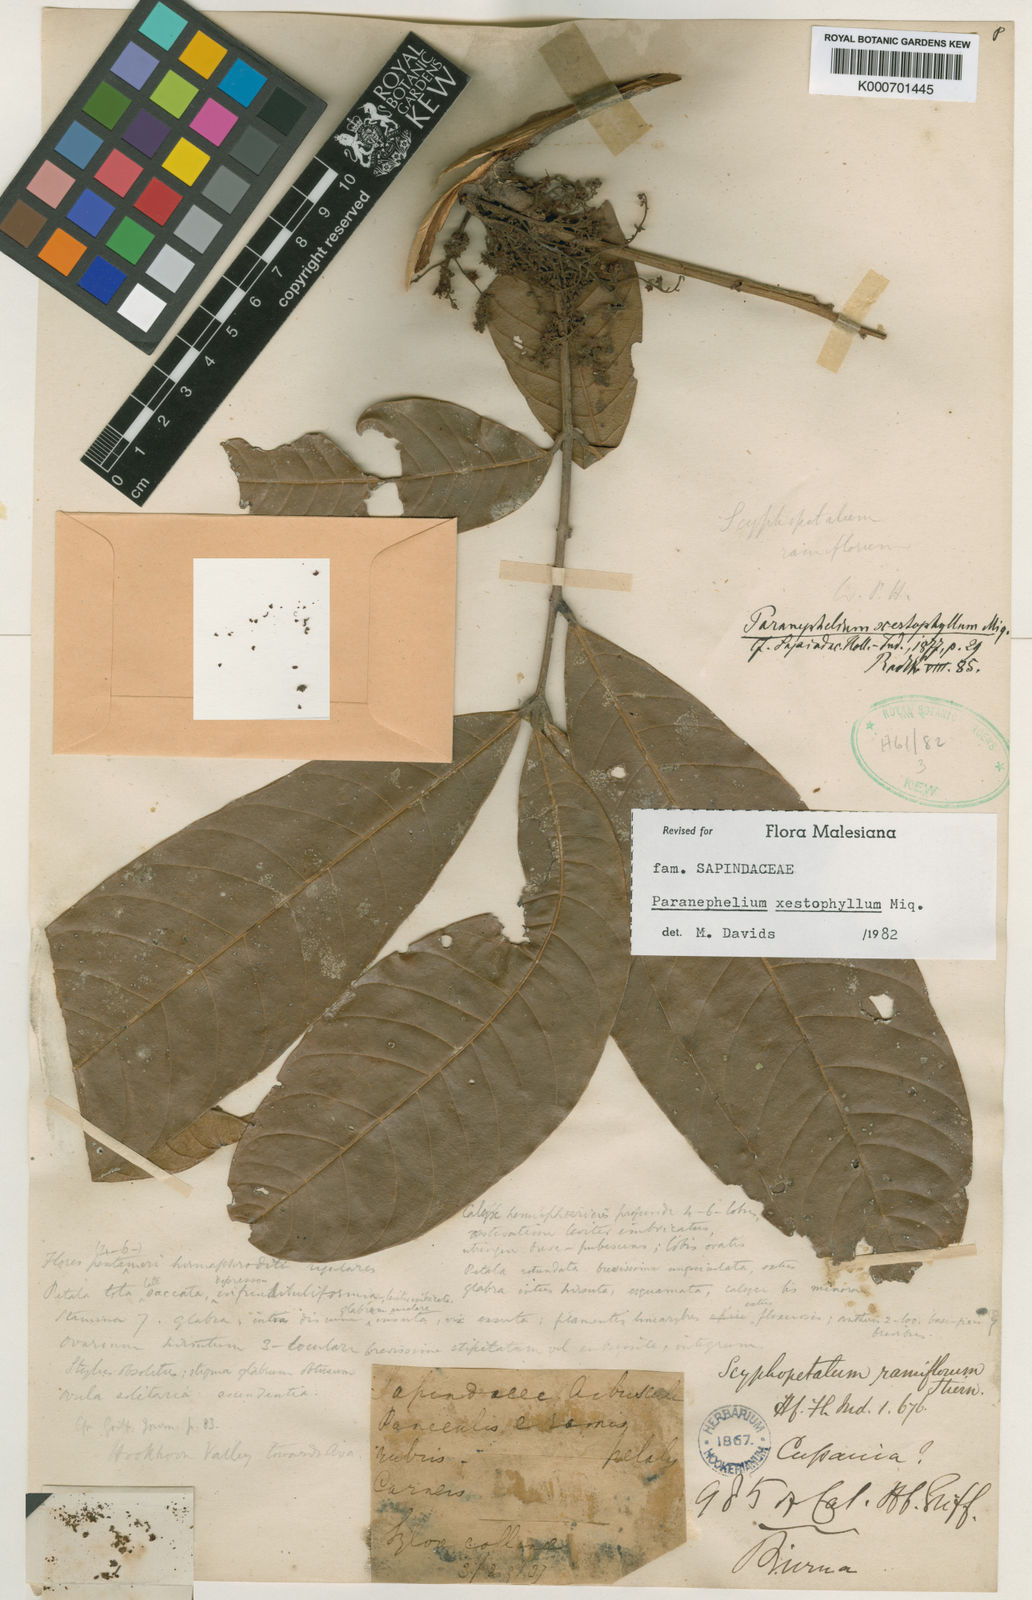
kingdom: Plantae
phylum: Tracheophyta
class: Magnoliopsida
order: Sapindales
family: Sapindaceae
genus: Paranephelium
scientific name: Paranephelium xestophyllum
